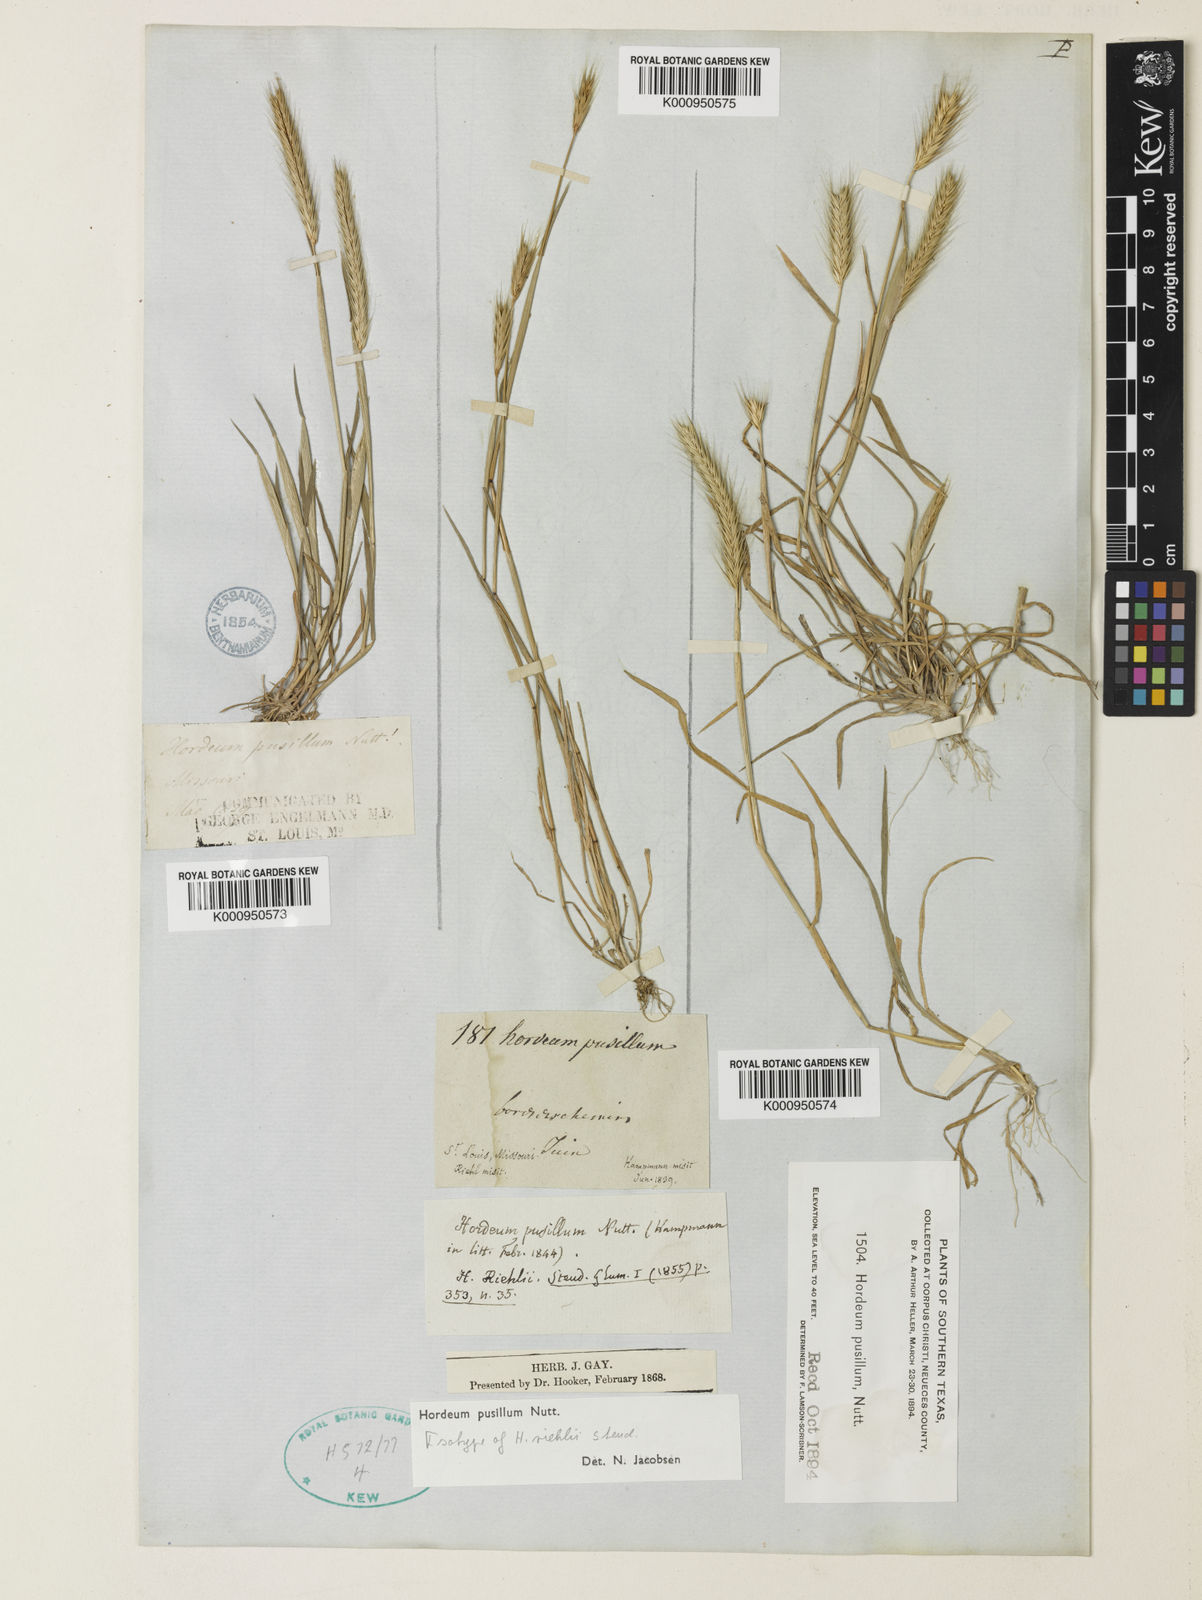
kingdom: Plantae
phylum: Tracheophyta
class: Liliopsida
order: Poales
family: Poaceae
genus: Hordeum
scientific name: Hordeum pusillum
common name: Little barley
